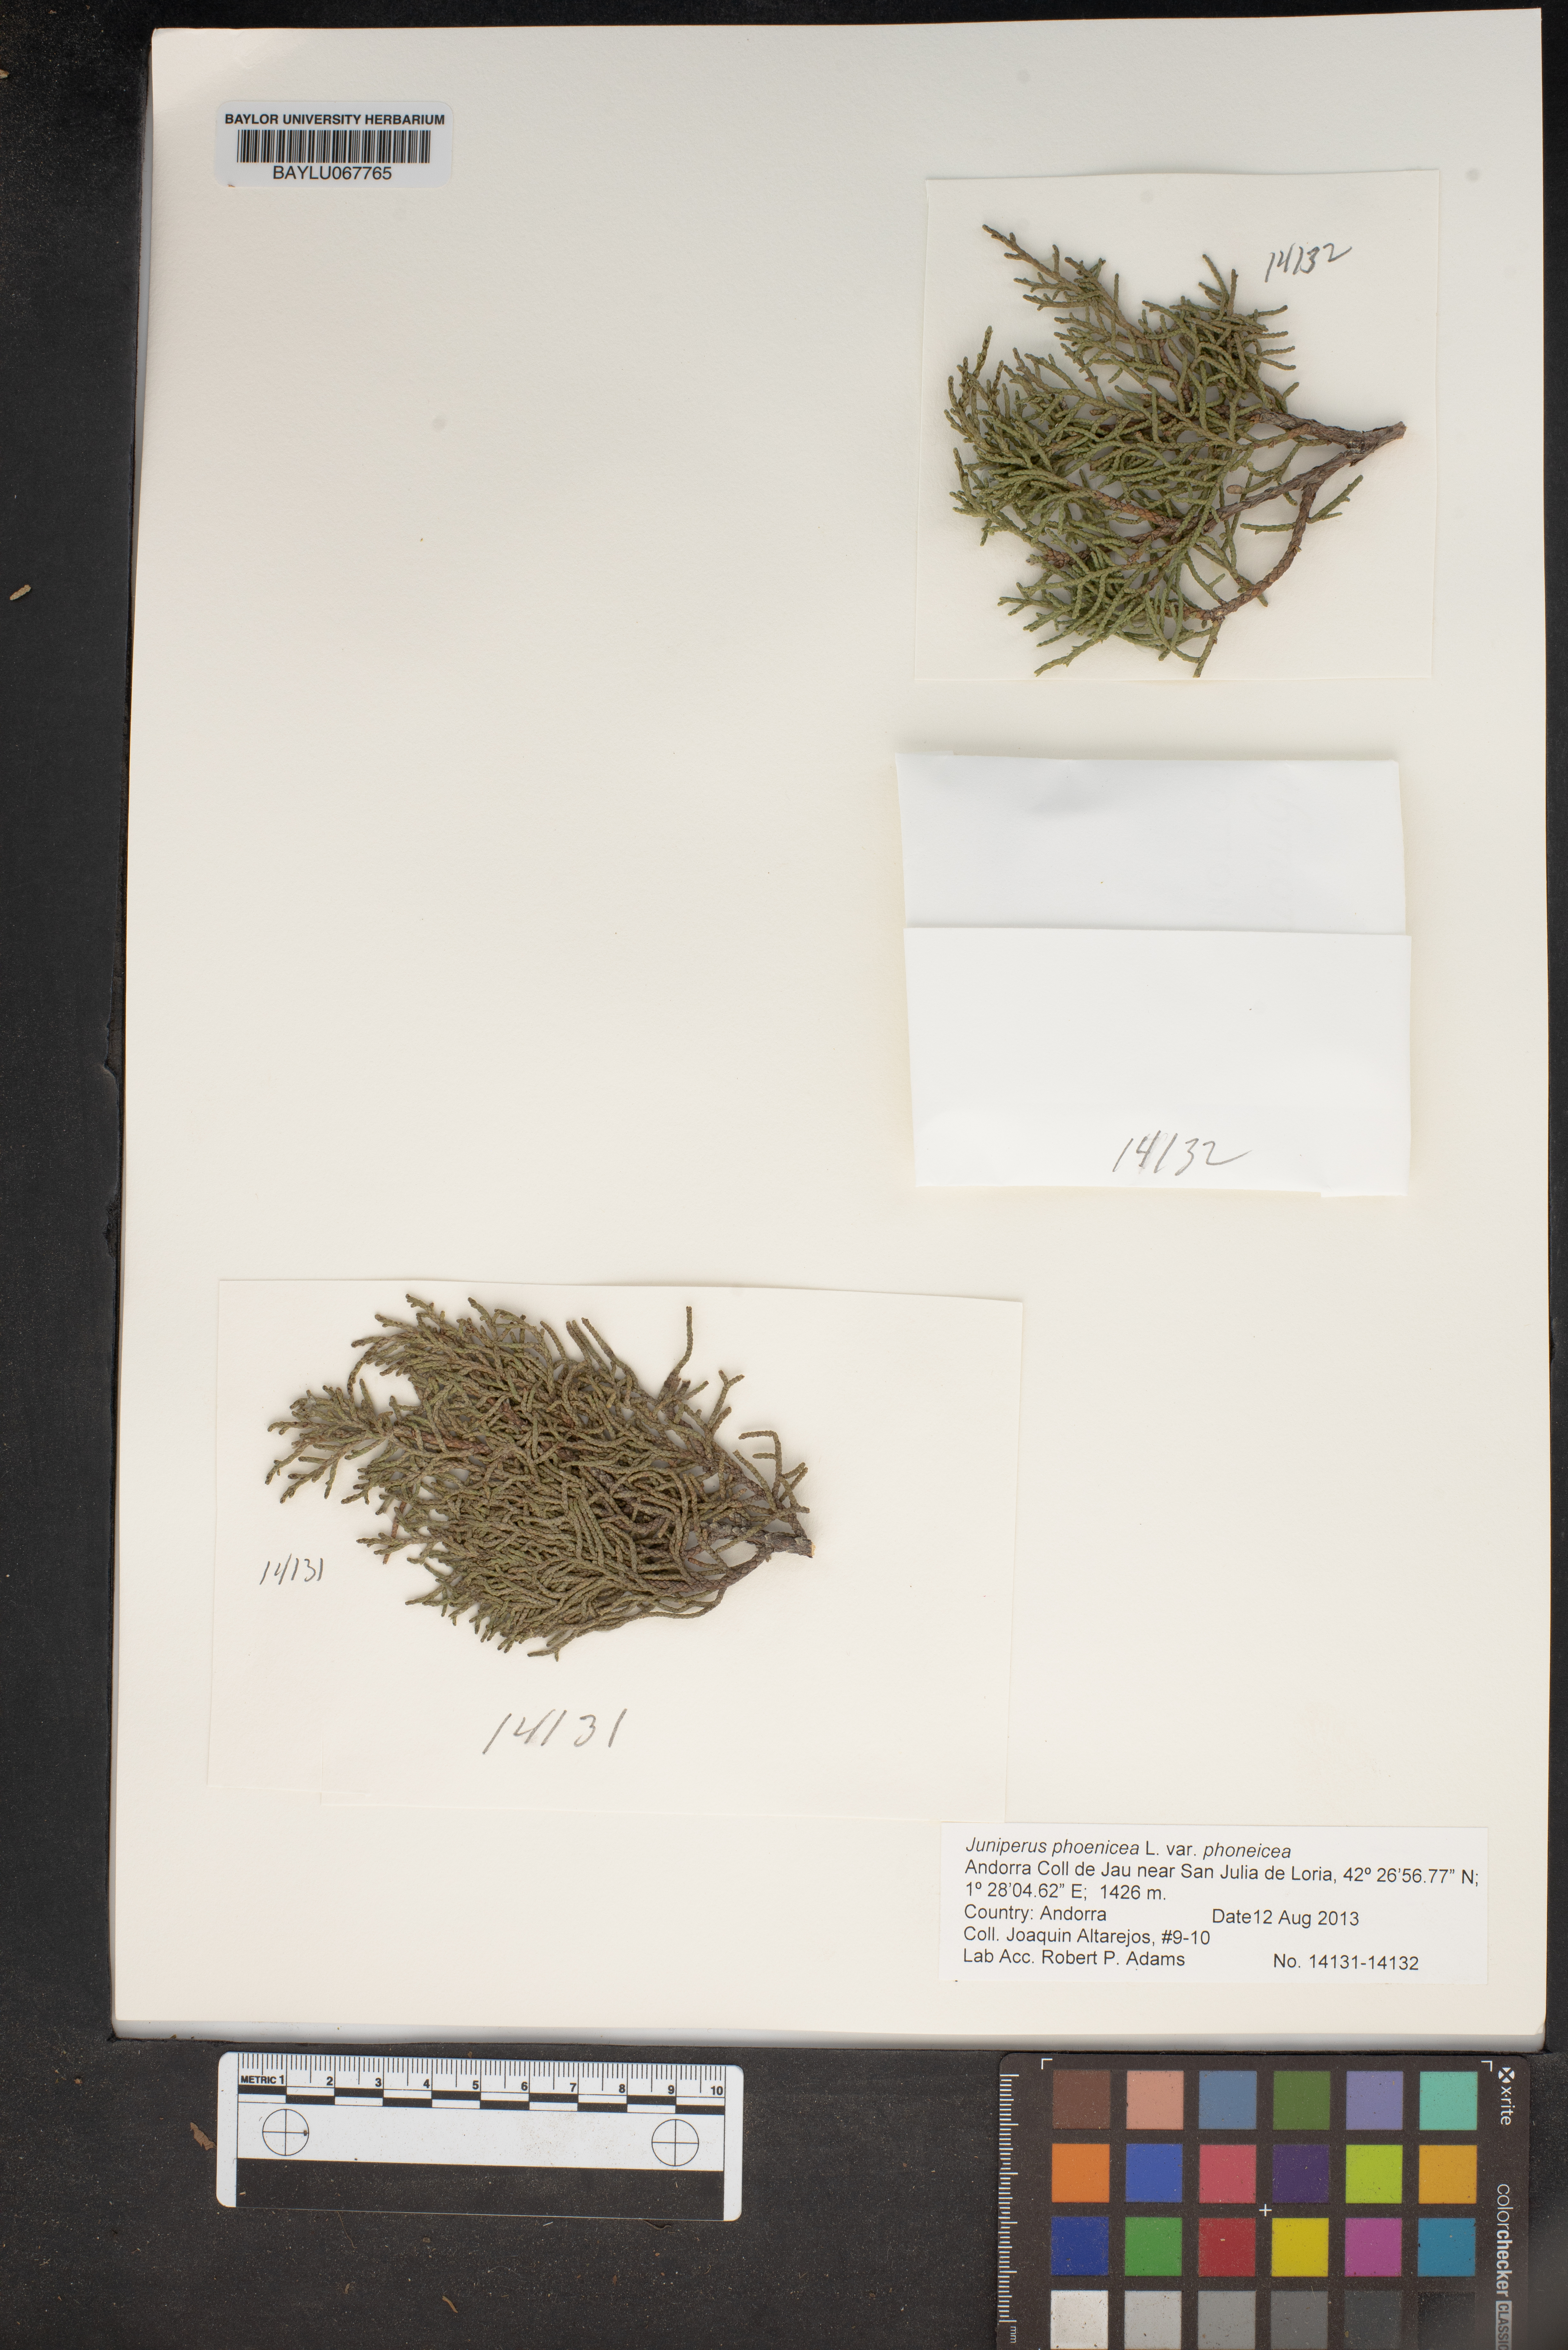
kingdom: Plantae
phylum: Tracheophyta
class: Pinopsida
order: Pinales
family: Cupressaceae
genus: Juniperus
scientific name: Juniperus phoenicea
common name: Phoenician juniper
